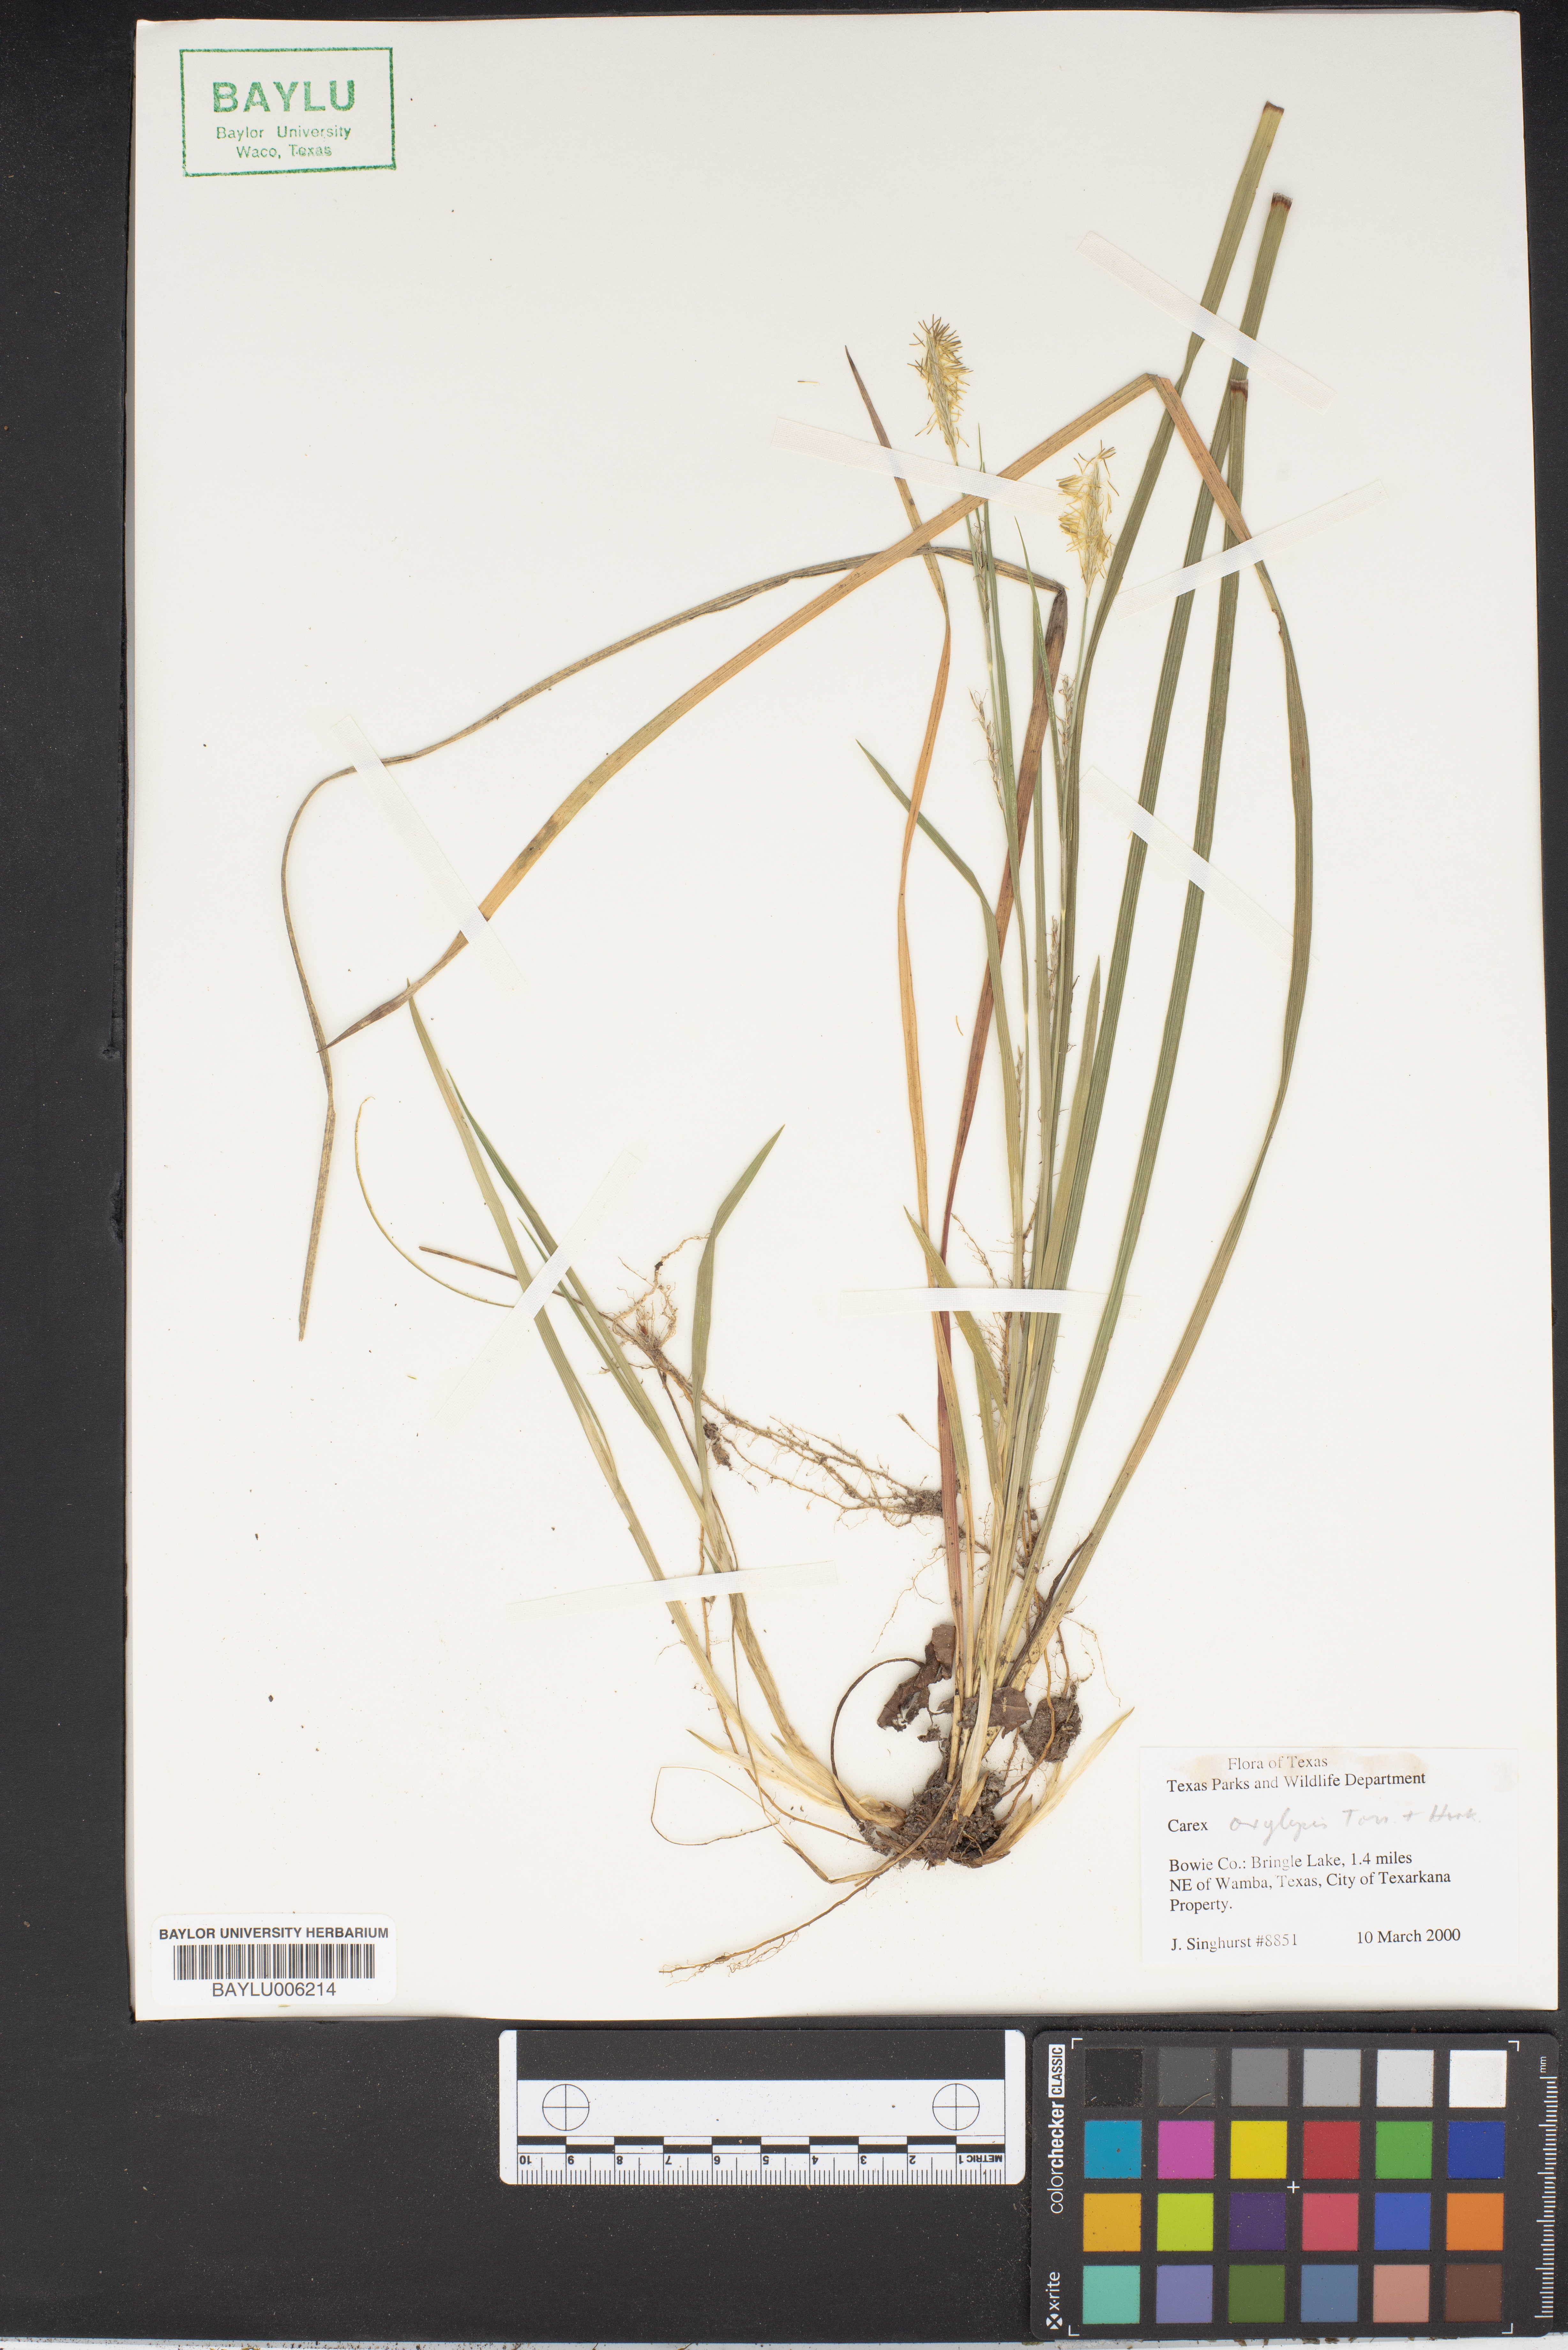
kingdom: Plantae
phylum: Tracheophyta
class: Liliopsida
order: Poales
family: Cyperaceae
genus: Carex
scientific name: Carex oxylepis
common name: Sharpscale sedge
